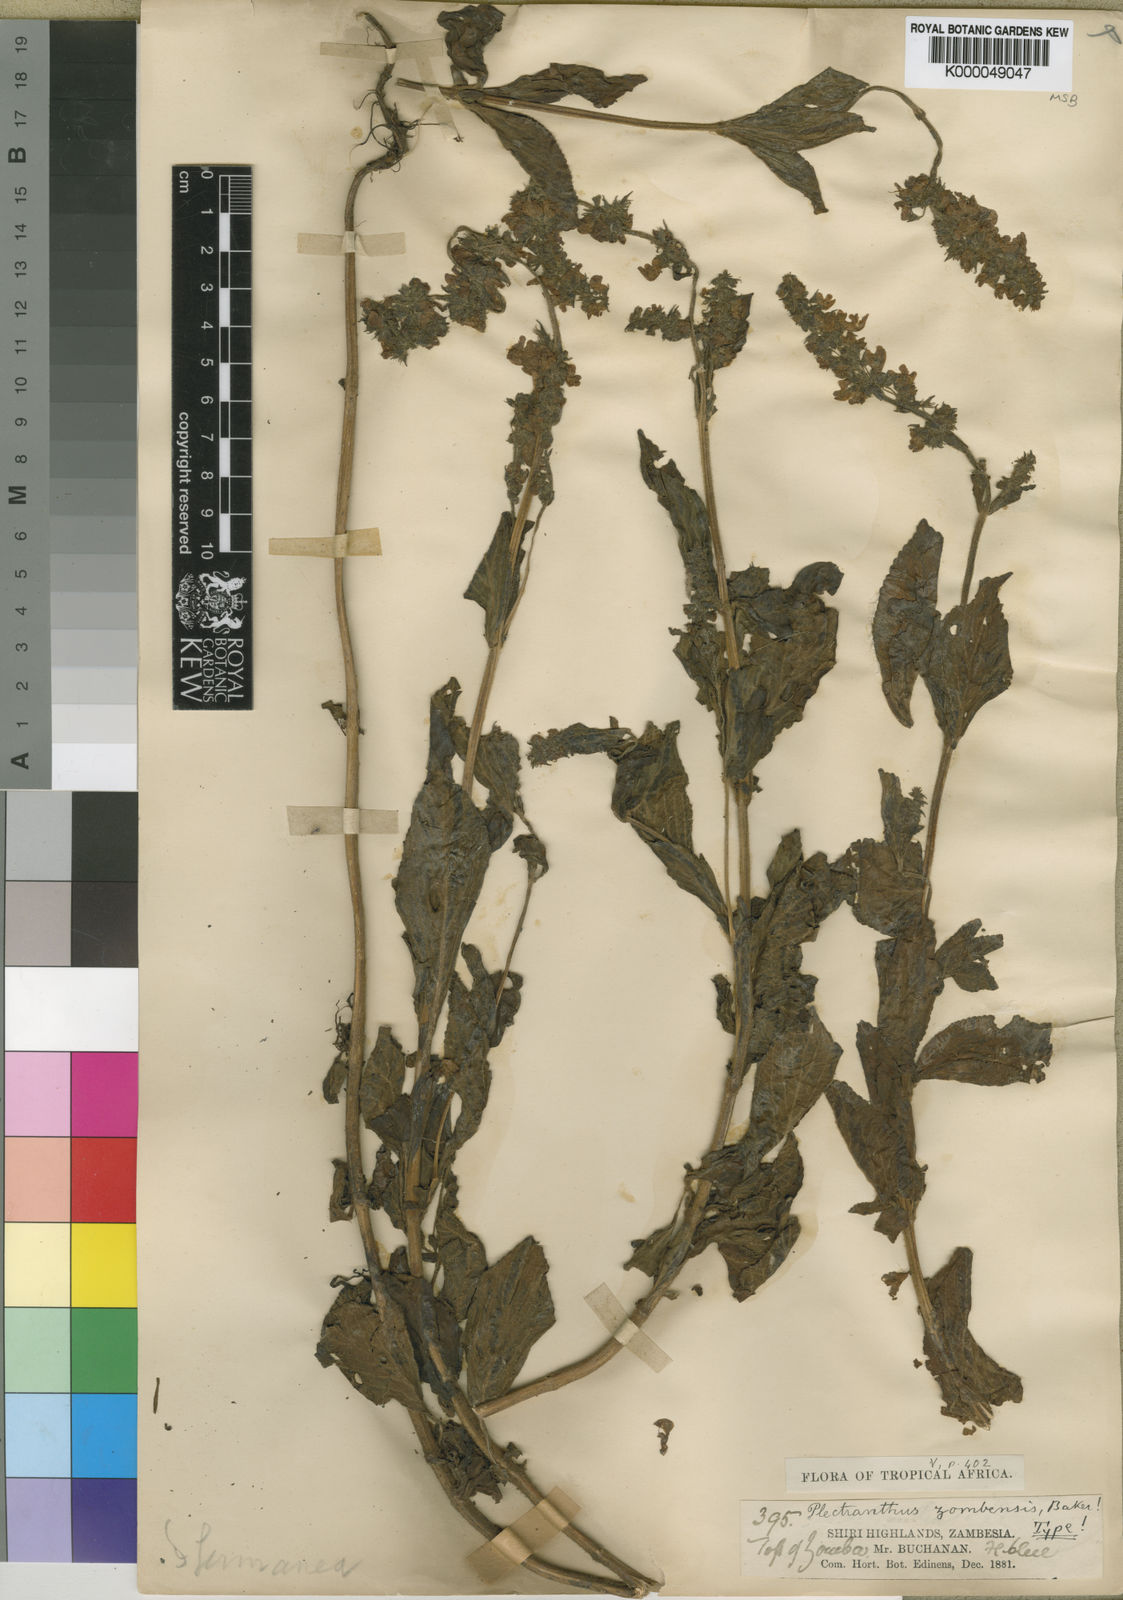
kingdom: Plantae
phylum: Tracheophyta
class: Magnoliopsida
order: Lamiales
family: Lamiaceae
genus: Coleus
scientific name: Coleus zombensis
